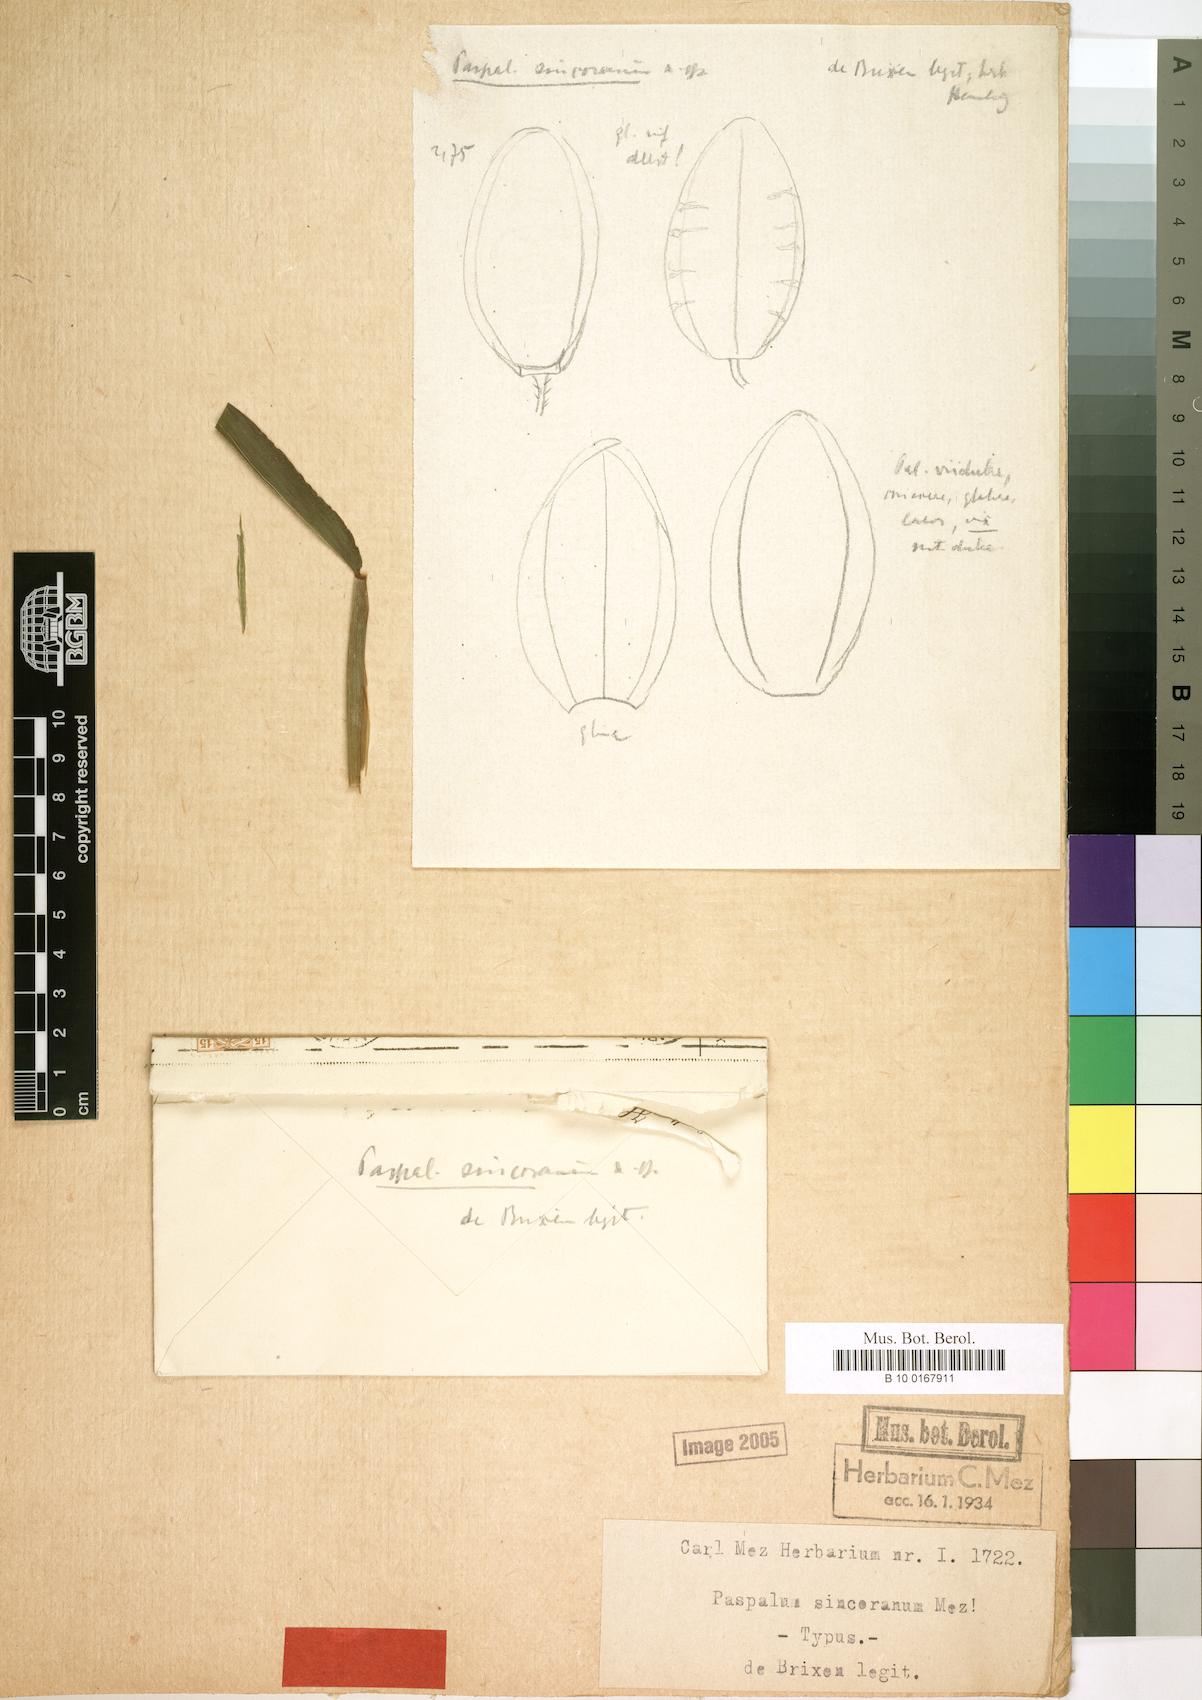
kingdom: Plantae
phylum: Tracheophyta
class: Liliopsida
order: Poales
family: Poaceae
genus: Paspalum
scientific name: Paspalum candidum
